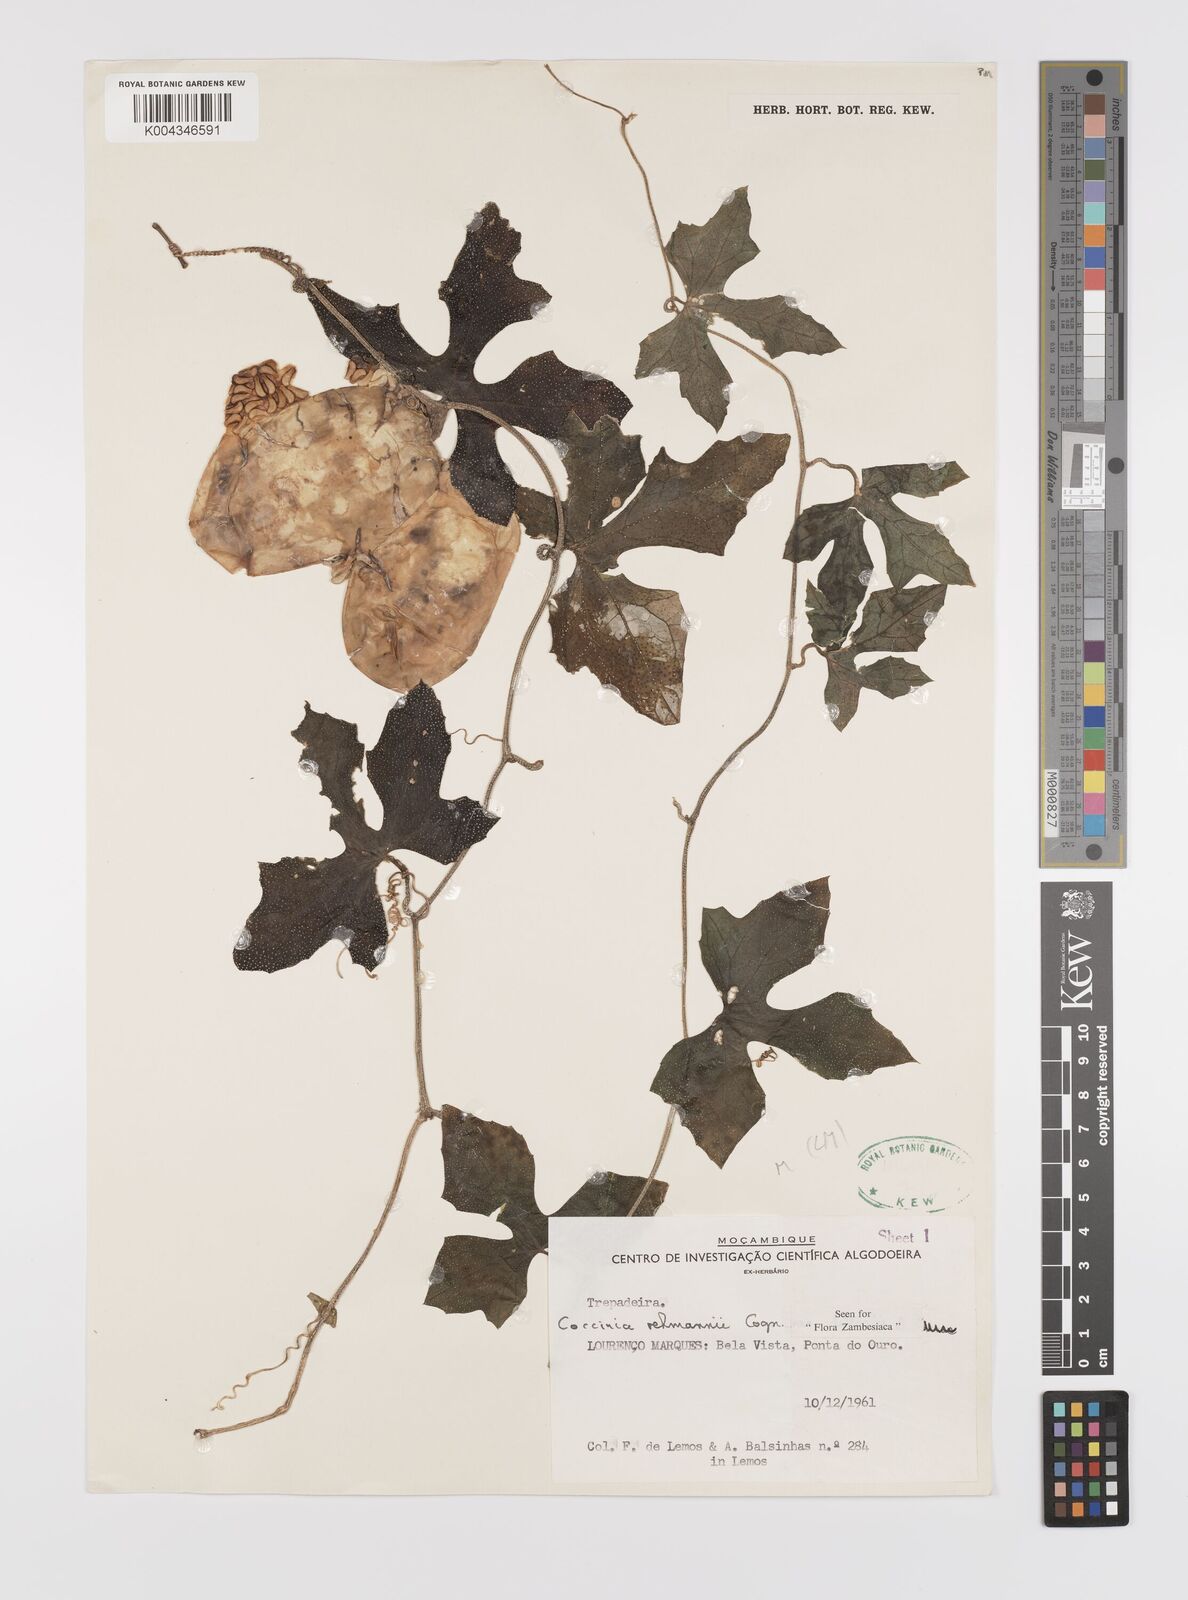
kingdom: Plantae
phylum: Tracheophyta
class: Magnoliopsida
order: Cucurbitales
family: Cucurbitaceae
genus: Coccinia
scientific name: Coccinia rehmannii
